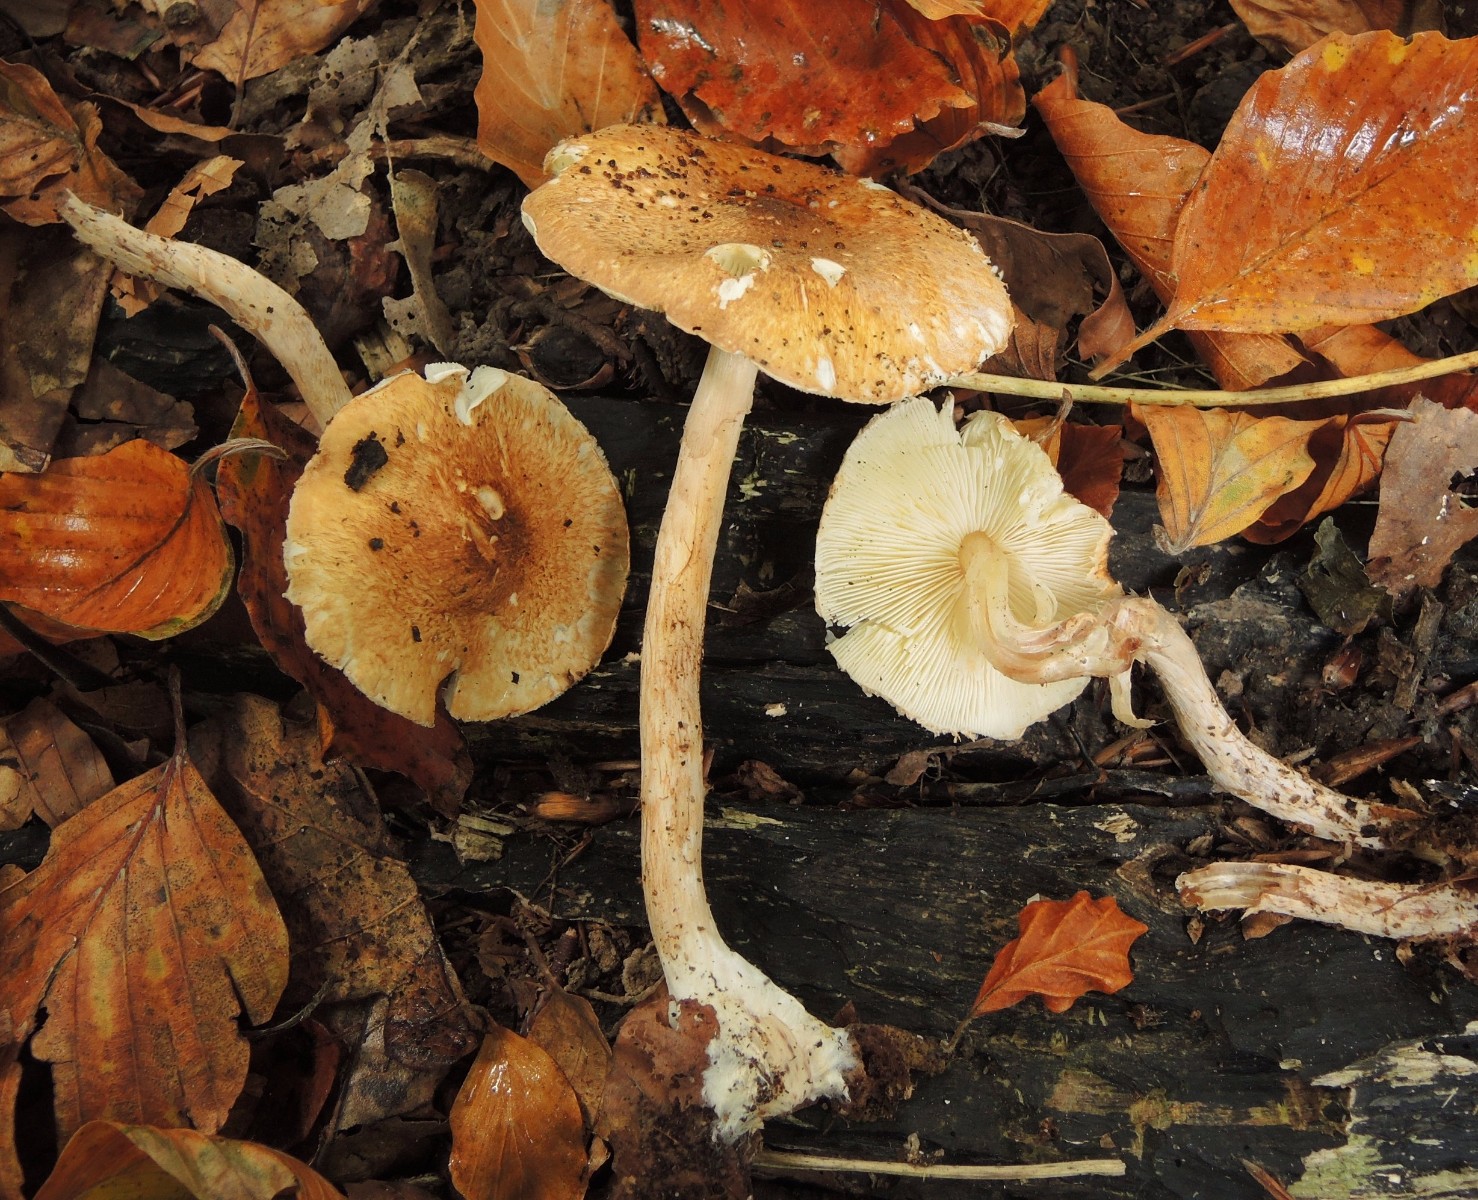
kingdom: Fungi
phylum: Basidiomycota
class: Agaricomycetes
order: Agaricales
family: Agaricaceae
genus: Leucocoprinus
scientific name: Leucocoprinus straminellus
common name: rustbrun parasolhat
